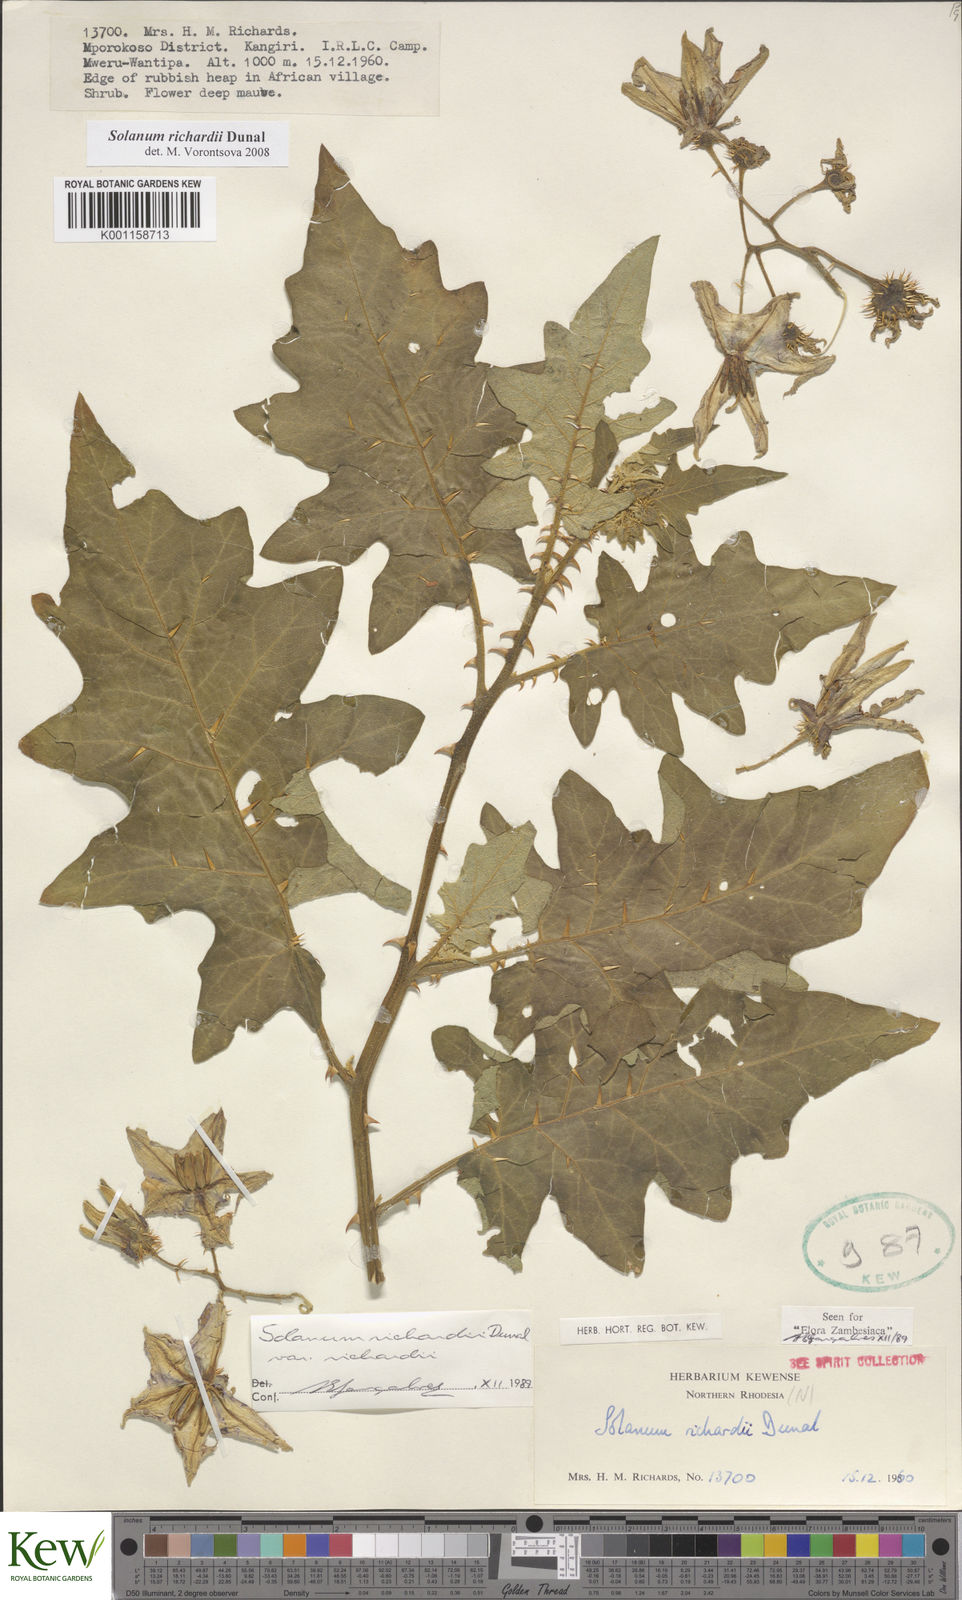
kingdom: Plantae
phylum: Tracheophyta
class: Magnoliopsida
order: Solanales
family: Solanaceae
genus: Solanum
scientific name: Solanum richardii
